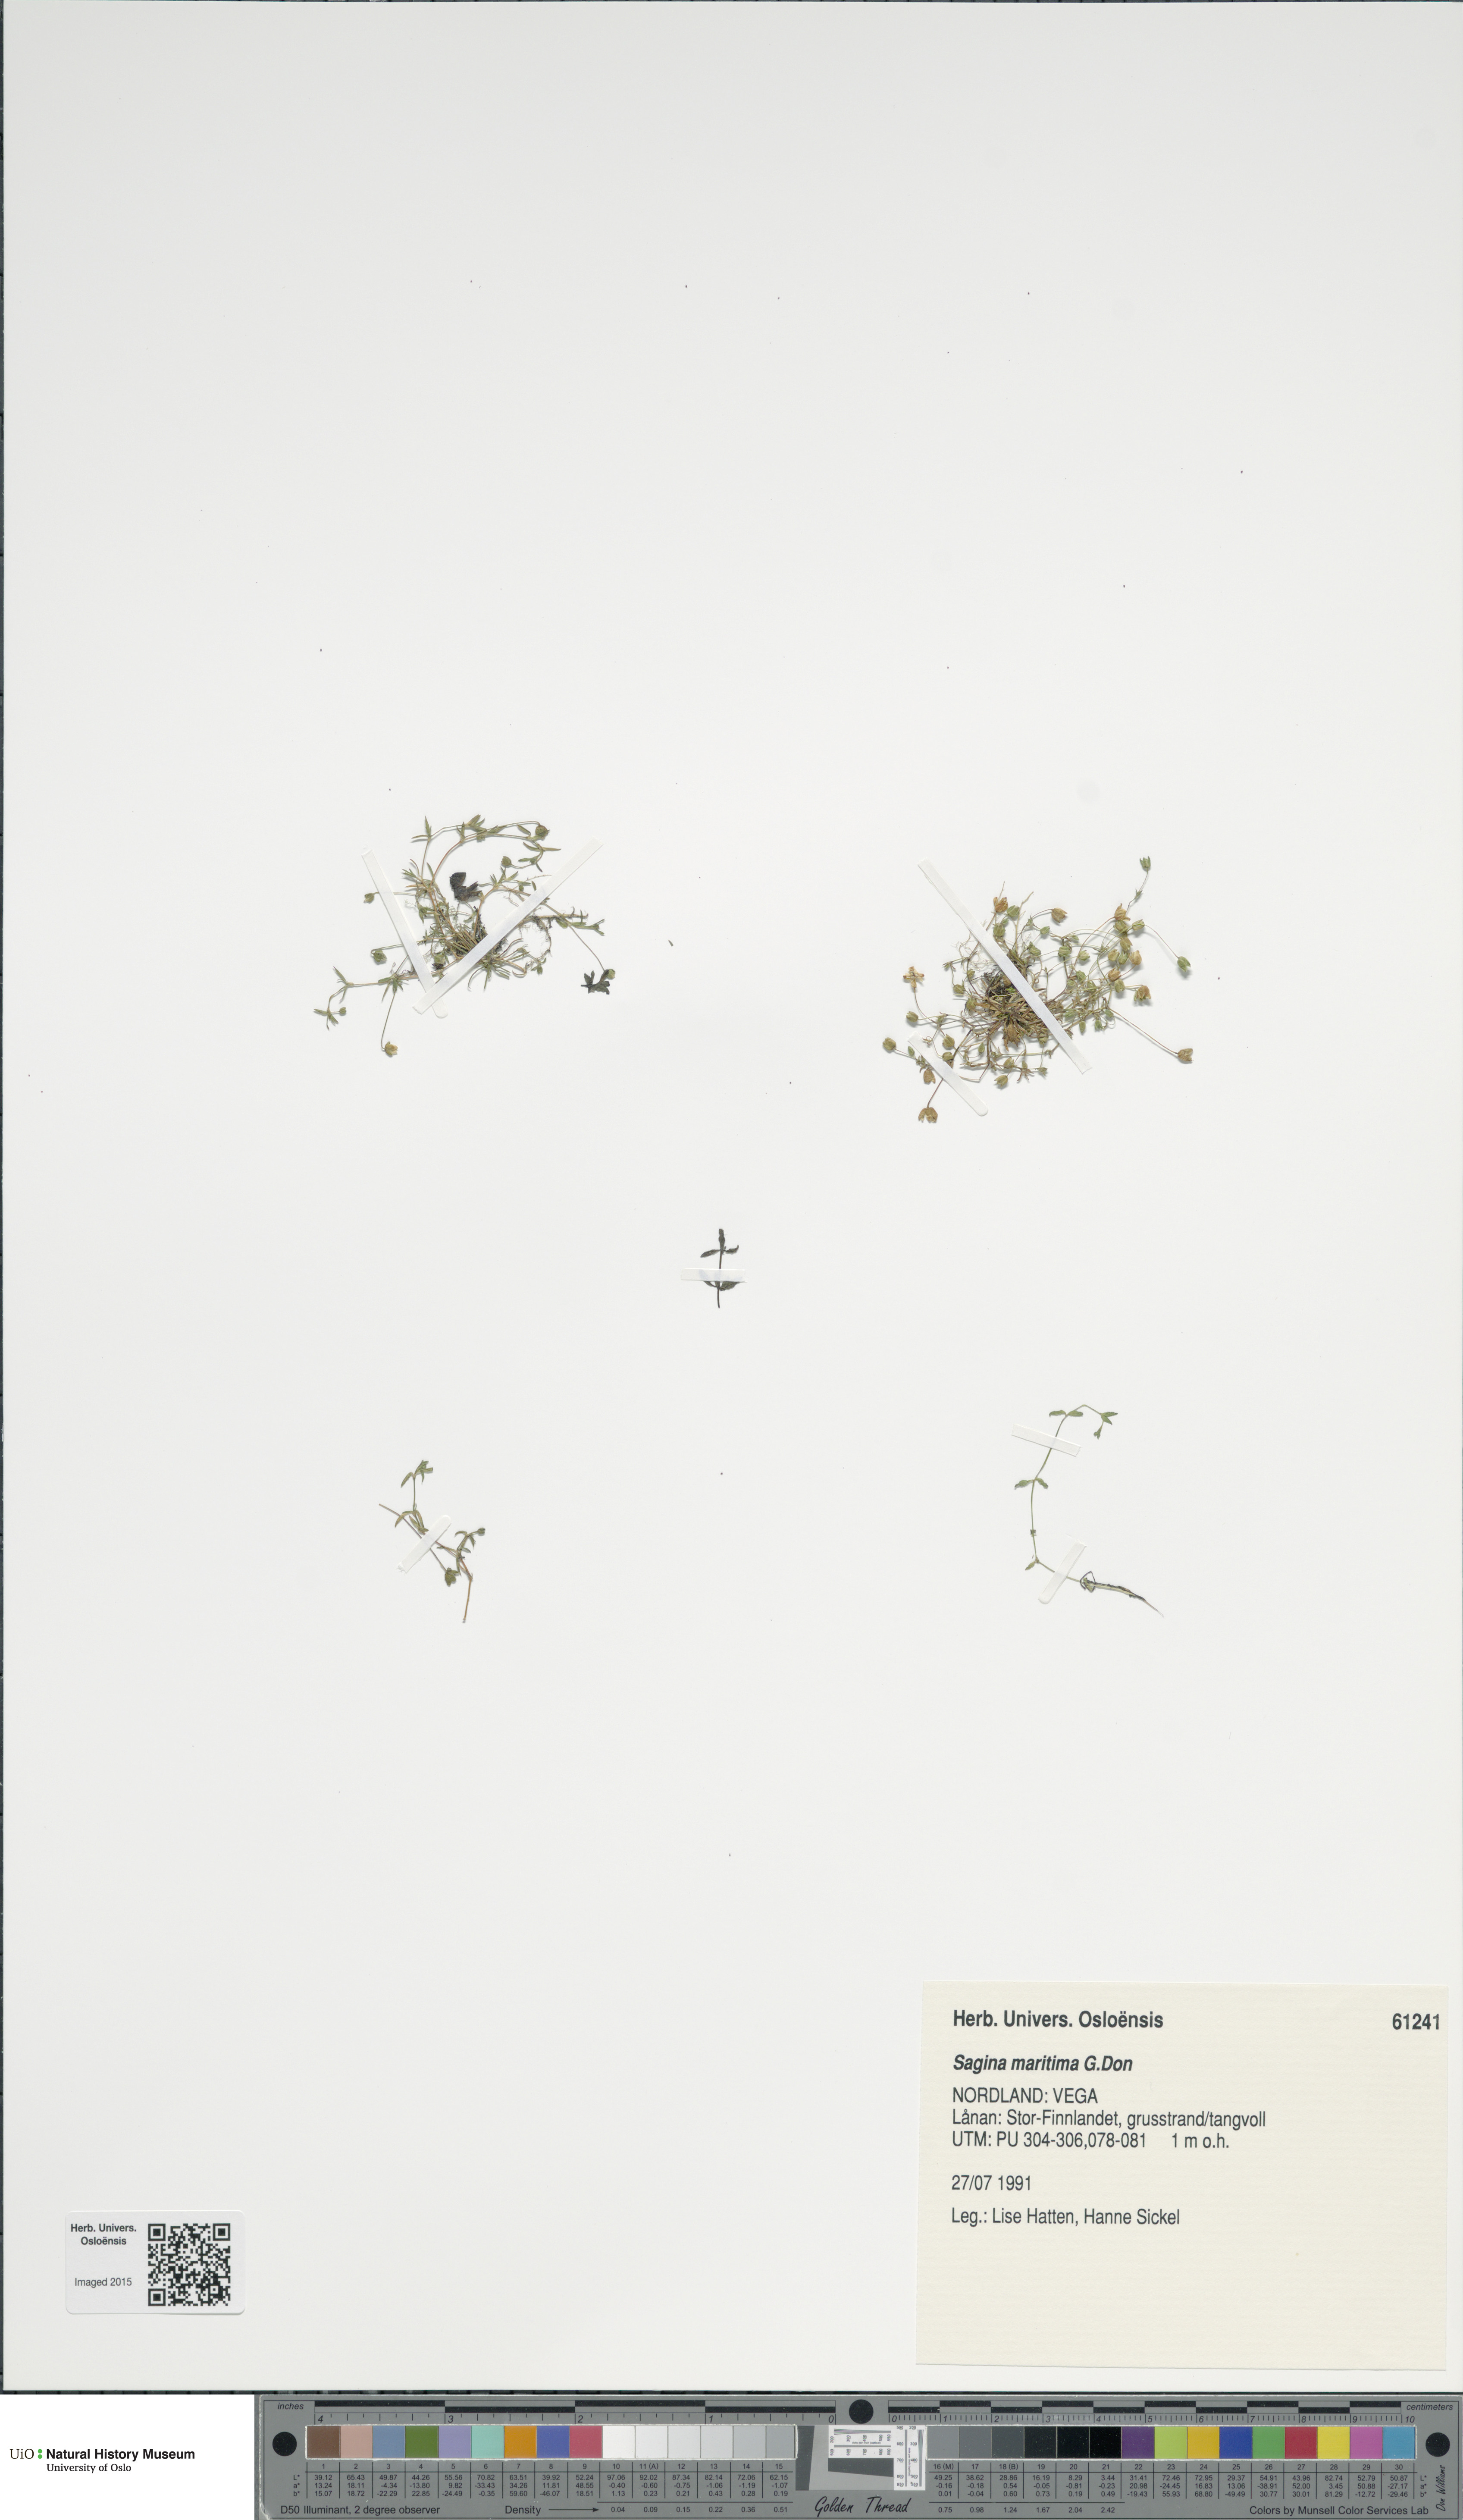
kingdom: Plantae
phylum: Tracheophyta
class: Magnoliopsida
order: Caryophyllales
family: Caryophyllaceae
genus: Sagina
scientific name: Sagina maritima
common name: Sea pearlwort
